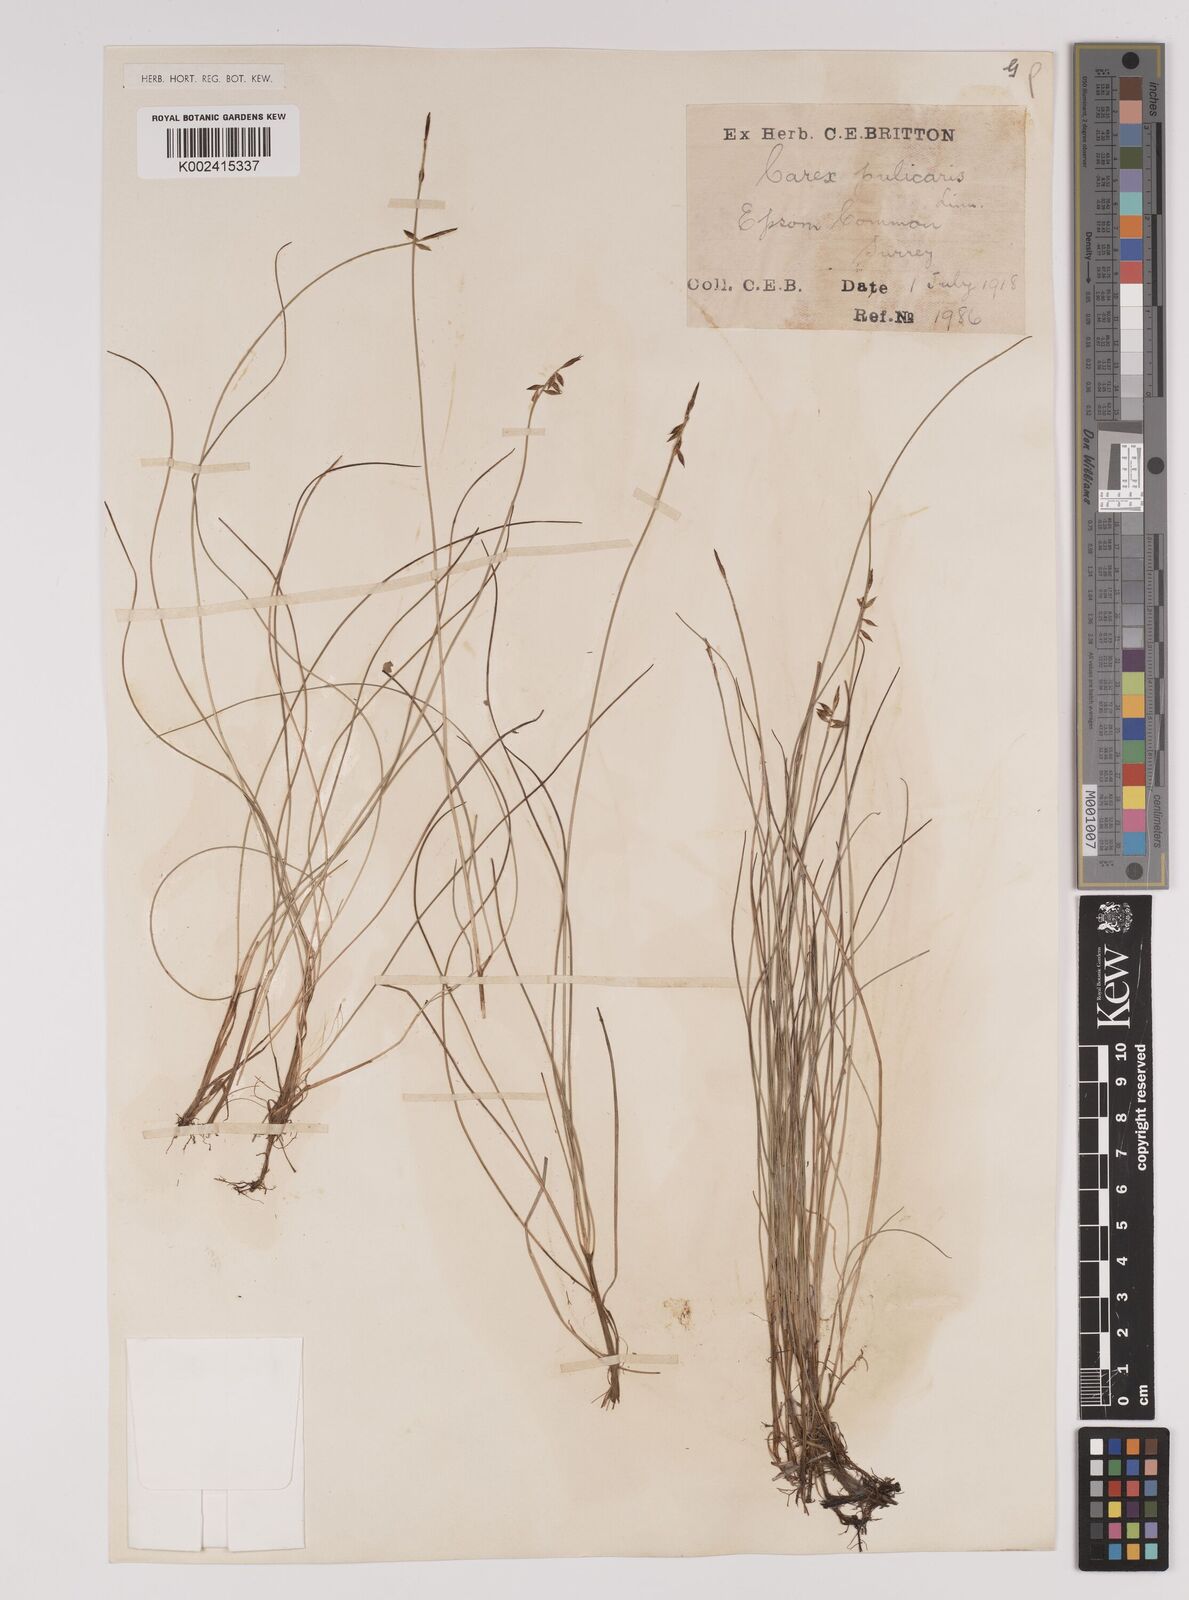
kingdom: Plantae
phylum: Tracheophyta
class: Liliopsida
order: Poales
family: Cyperaceae
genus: Carex
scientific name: Carex pulicaris
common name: Flea sedge
